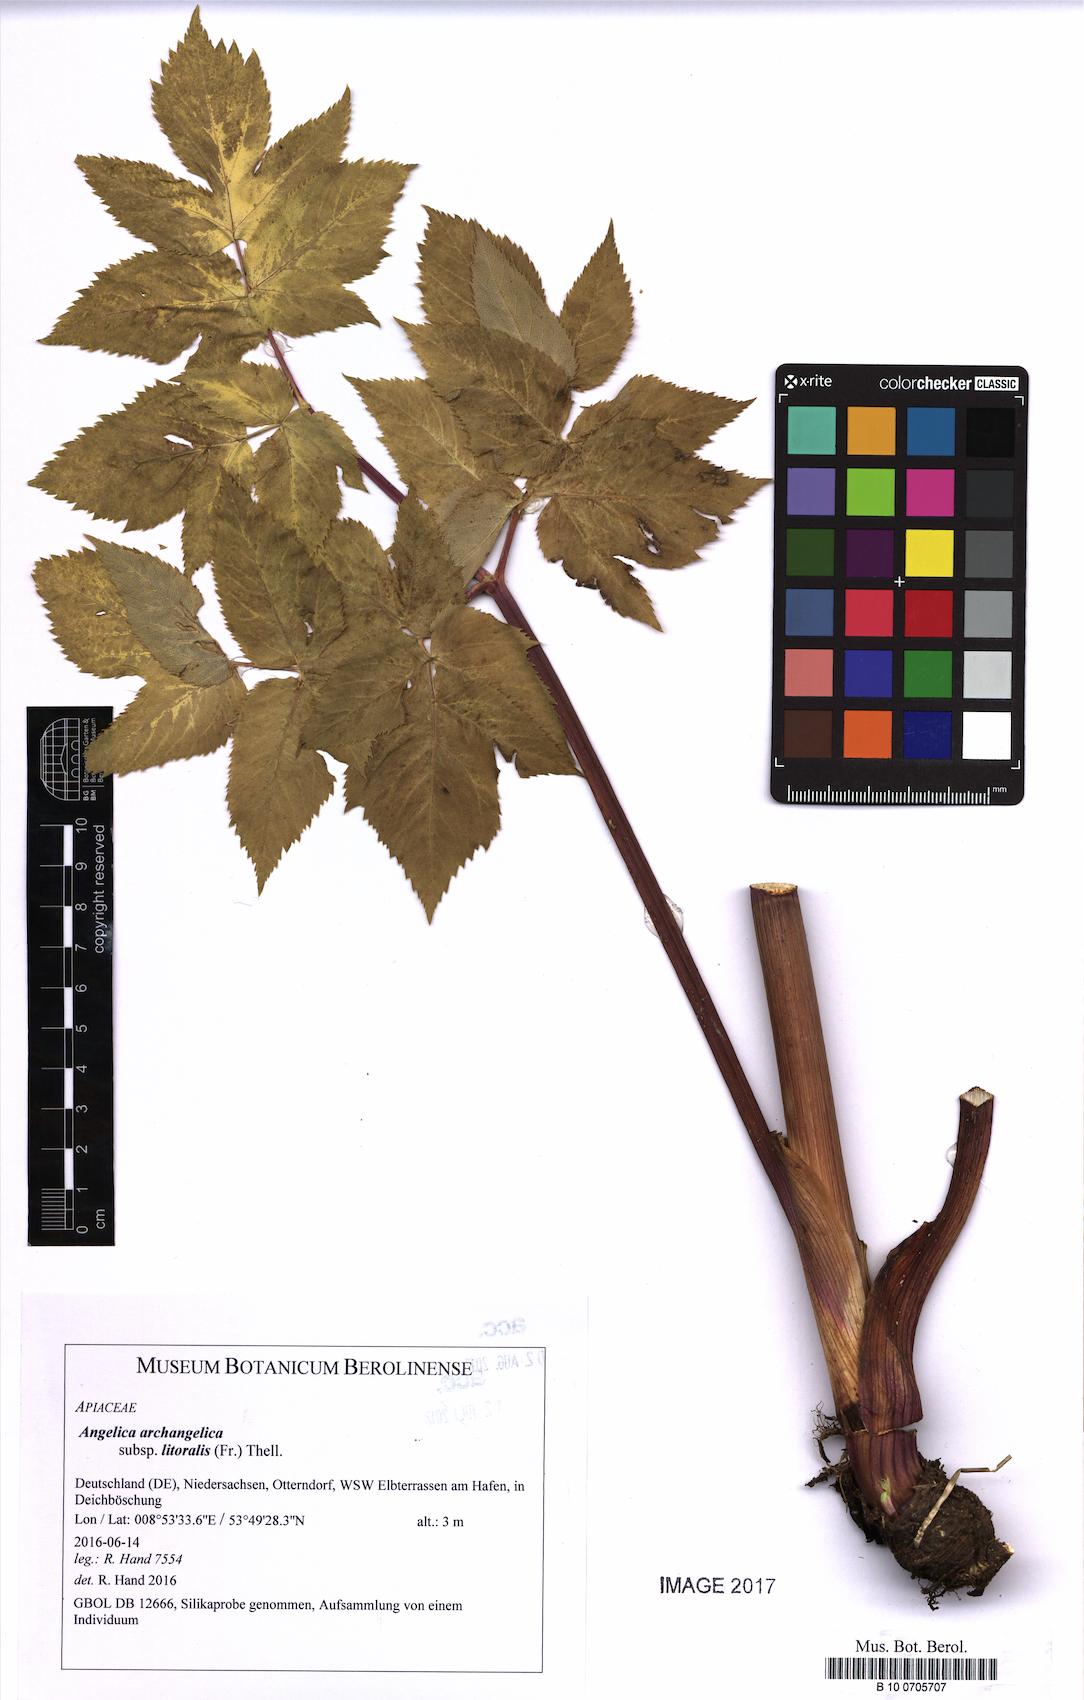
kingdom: Plantae
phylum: Tracheophyta
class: Magnoliopsida
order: Apiales
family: Apiaceae
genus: Angelica
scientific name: Angelica archangelica
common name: Garden angelica
